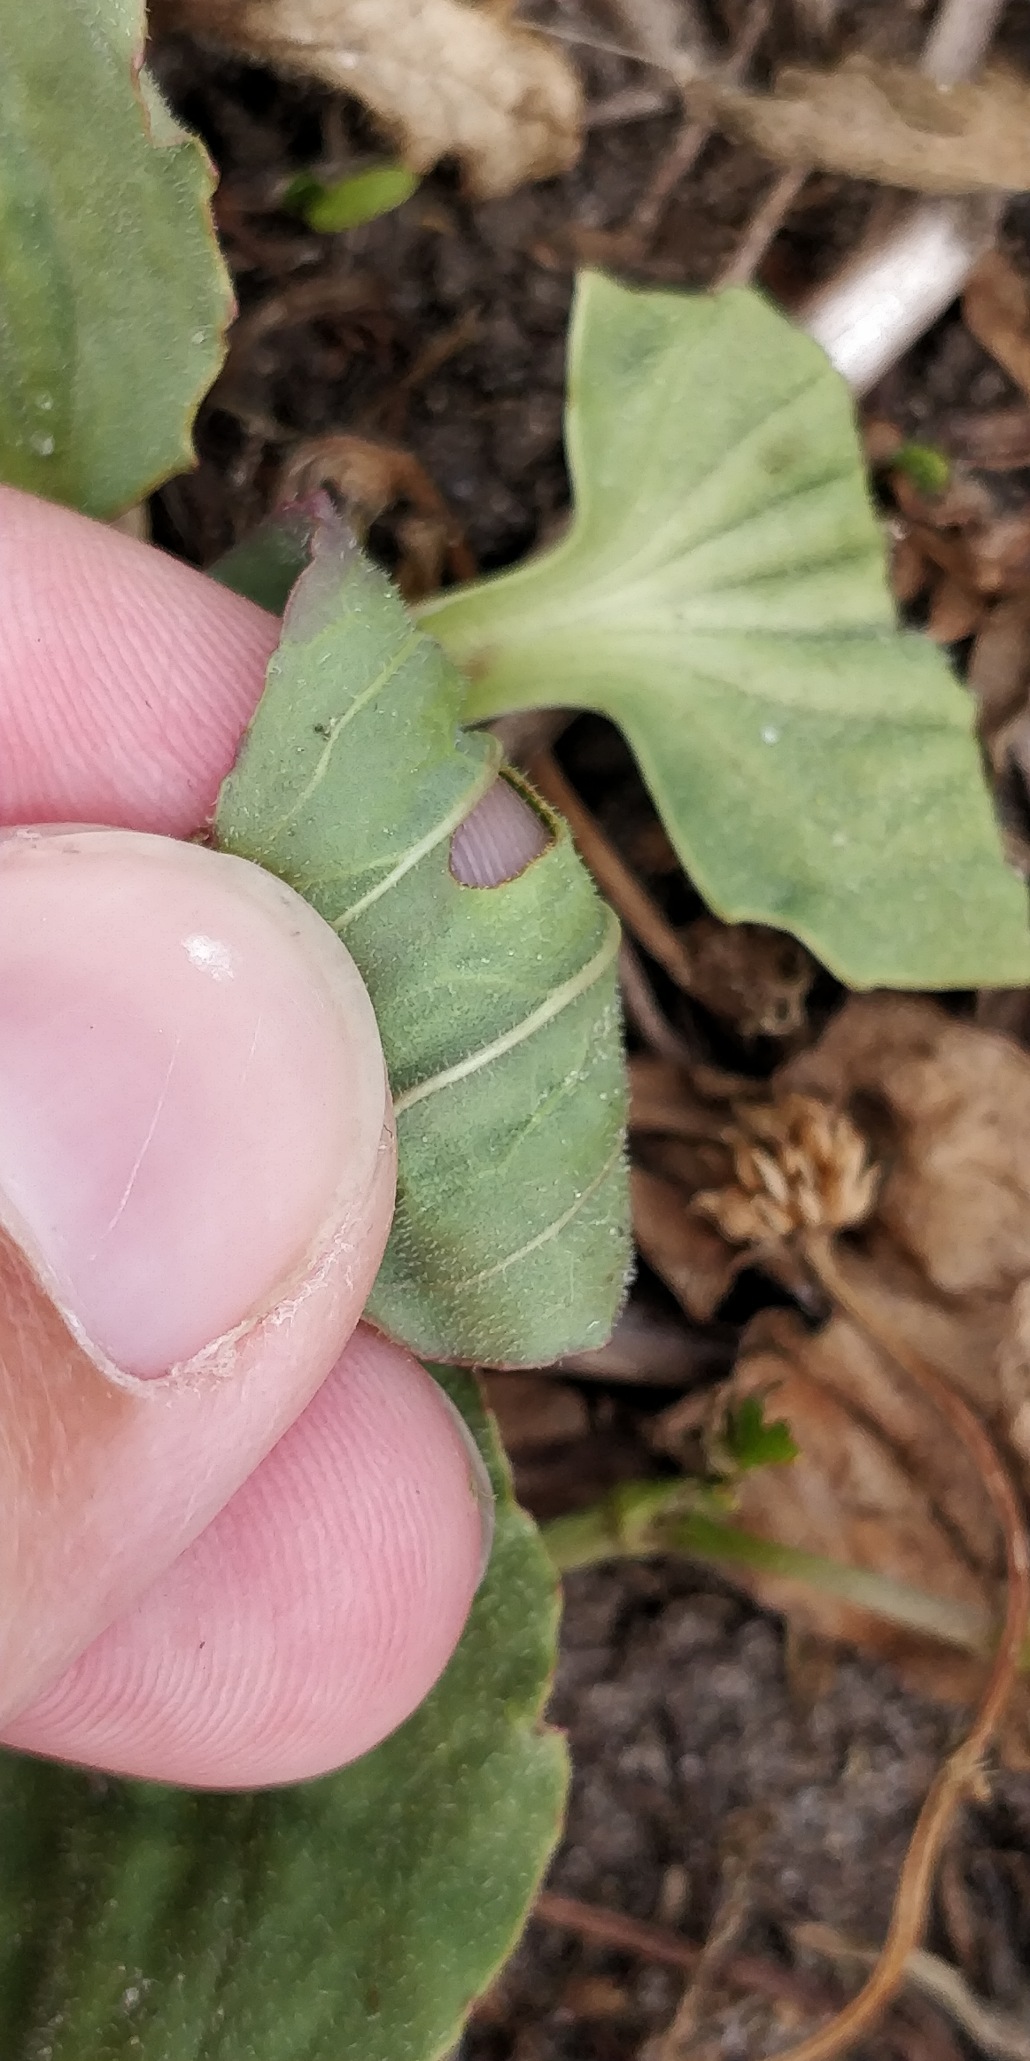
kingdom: Plantae
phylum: Tracheophyta
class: Magnoliopsida
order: Lamiales
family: Plantaginaceae
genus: Plantago
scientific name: Plantago uliginosa
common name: Ager-vejbred
